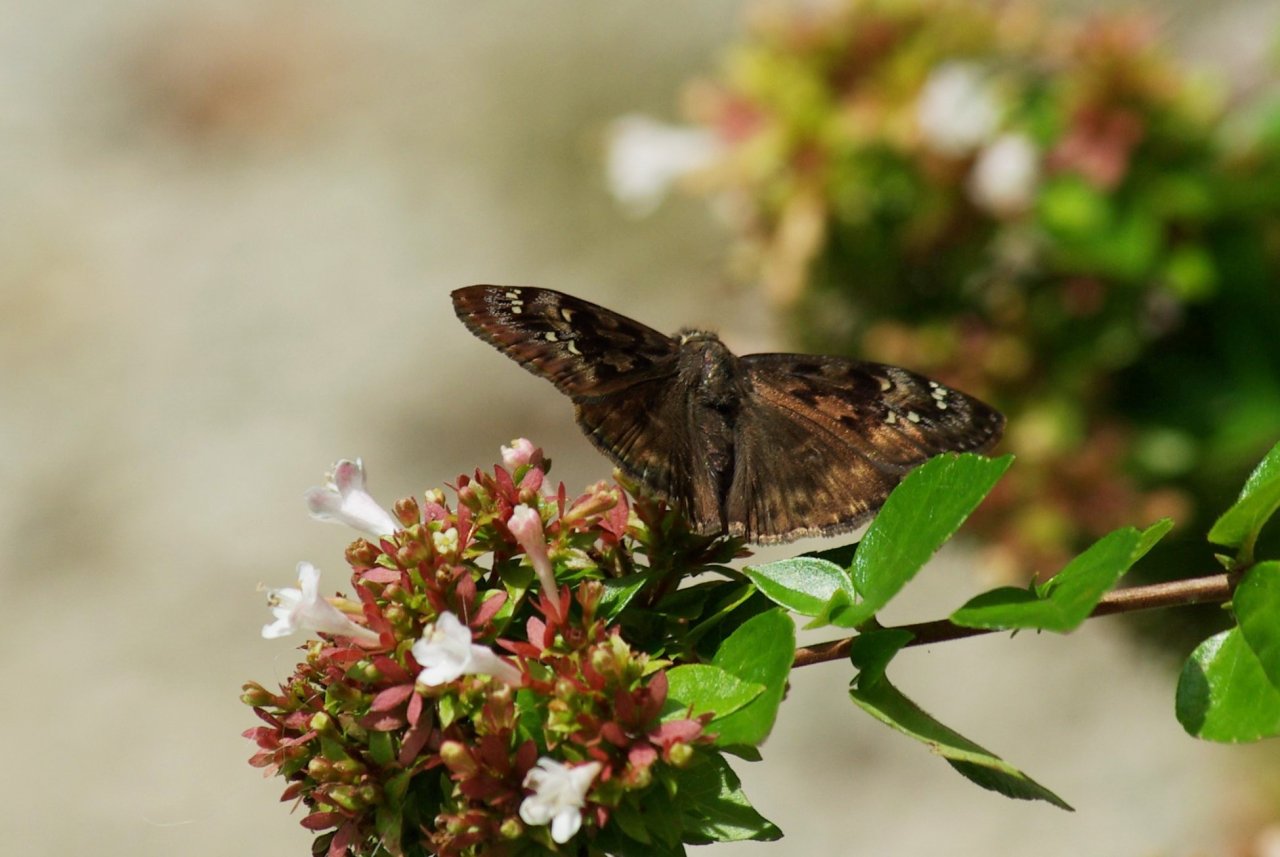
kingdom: Animalia
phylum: Arthropoda
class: Insecta
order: Lepidoptera
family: Hesperiidae
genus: Gesta
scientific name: Gesta
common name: Horace's Duskywing
